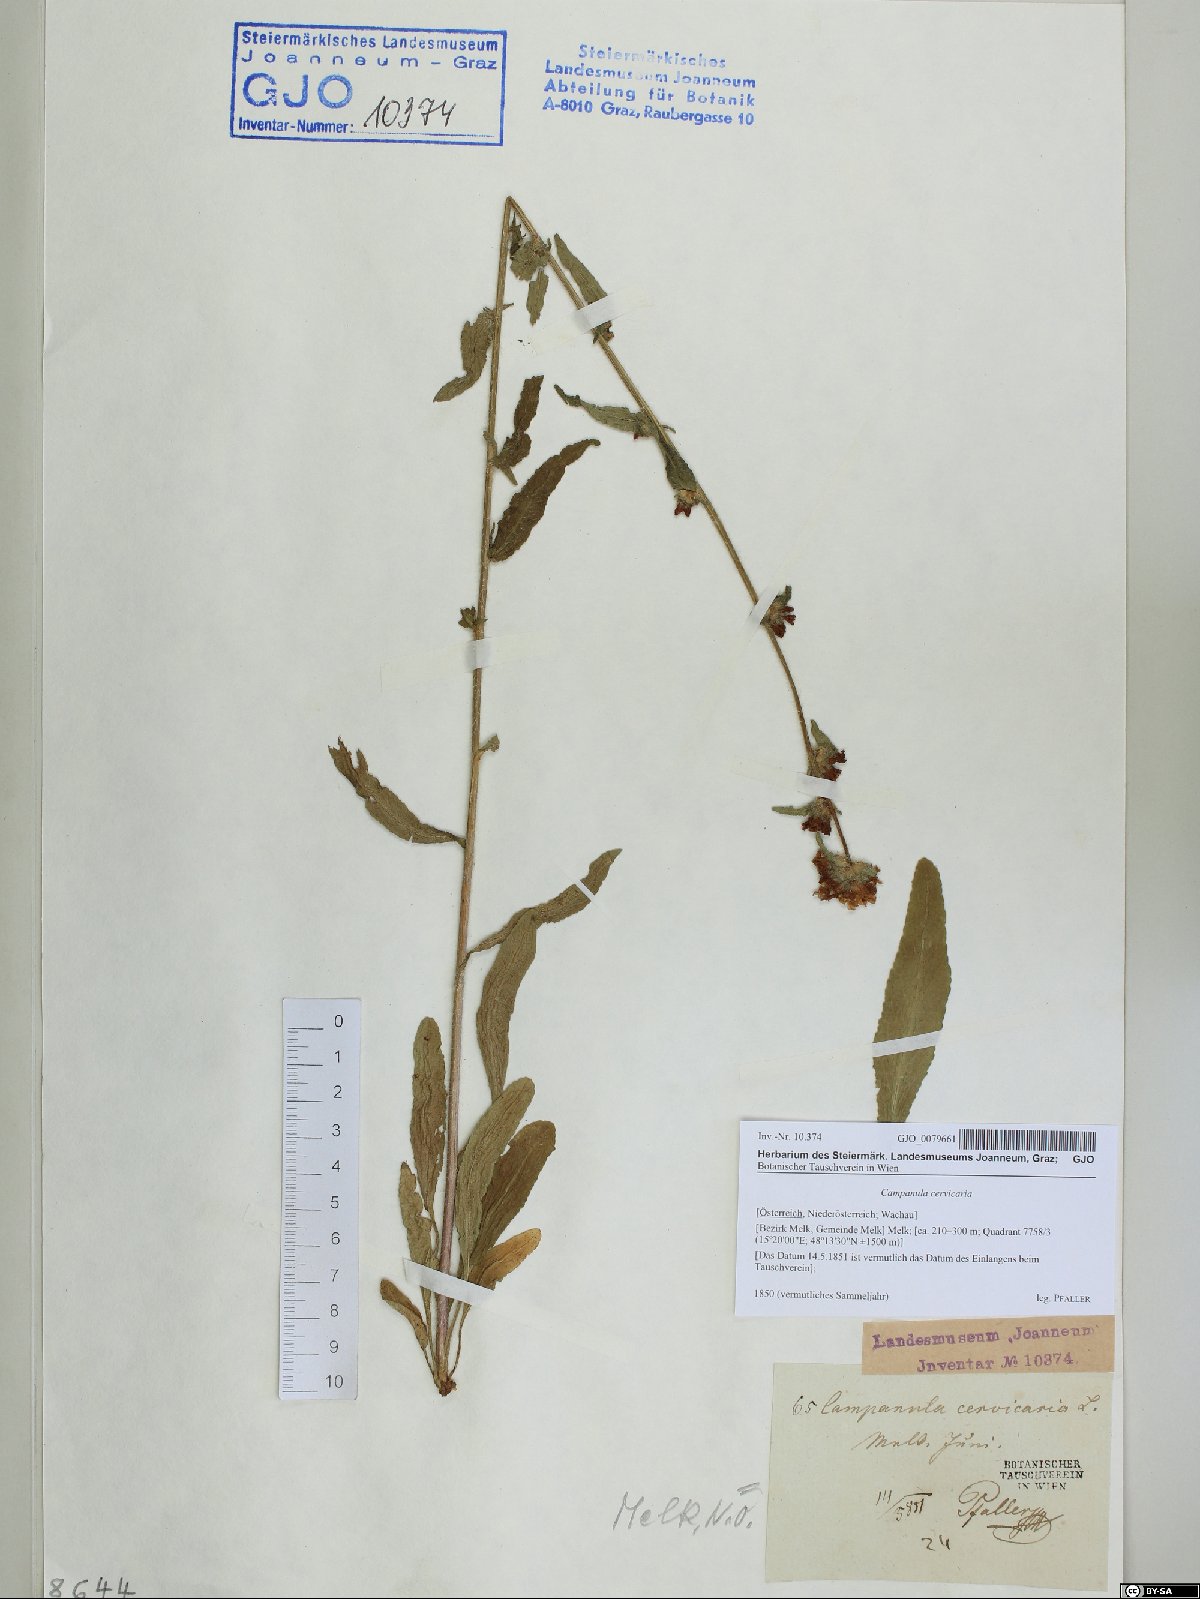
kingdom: Plantae
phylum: Tracheophyta
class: Magnoliopsida
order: Asterales
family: Campanulaceae
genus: Campanula
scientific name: Campanula cervicaria
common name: Bristly bellflower
